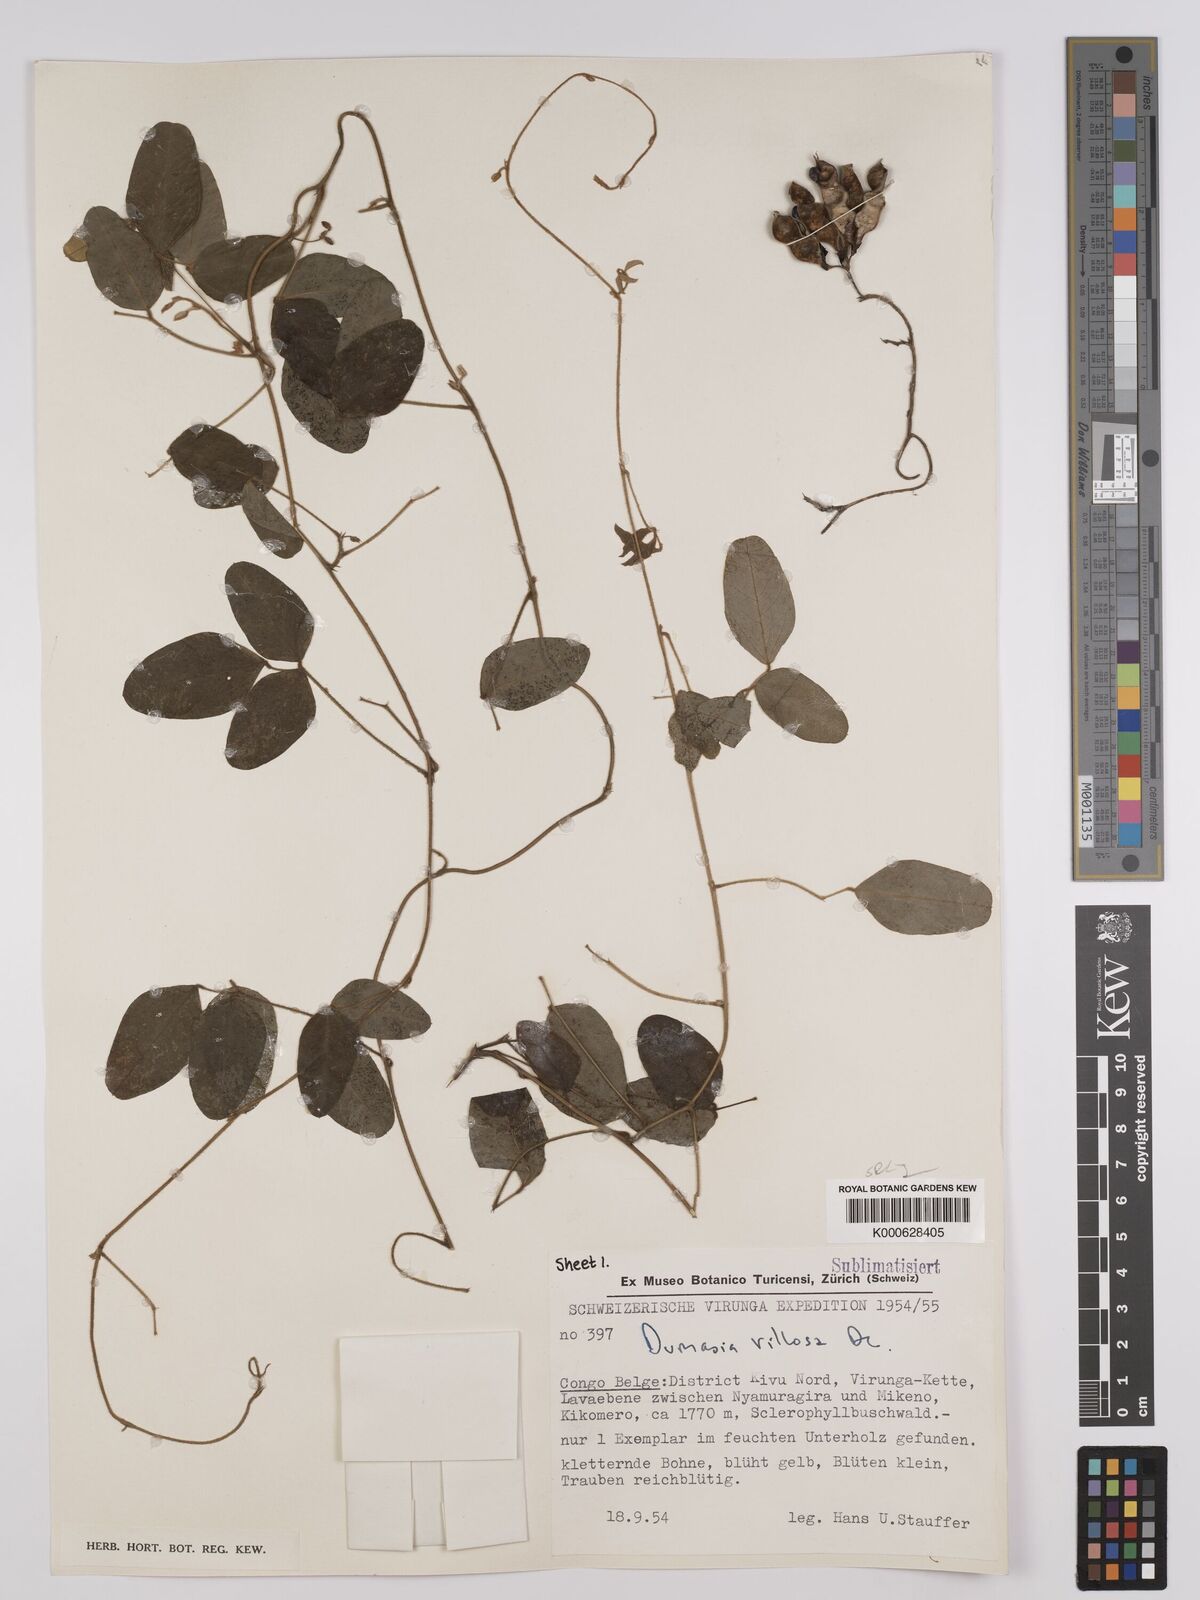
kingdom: Plantae
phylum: Tracheophyta
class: Magnoliopsida
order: Fabales
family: Fabaceae
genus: Dumasia
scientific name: Dumasia villosa
